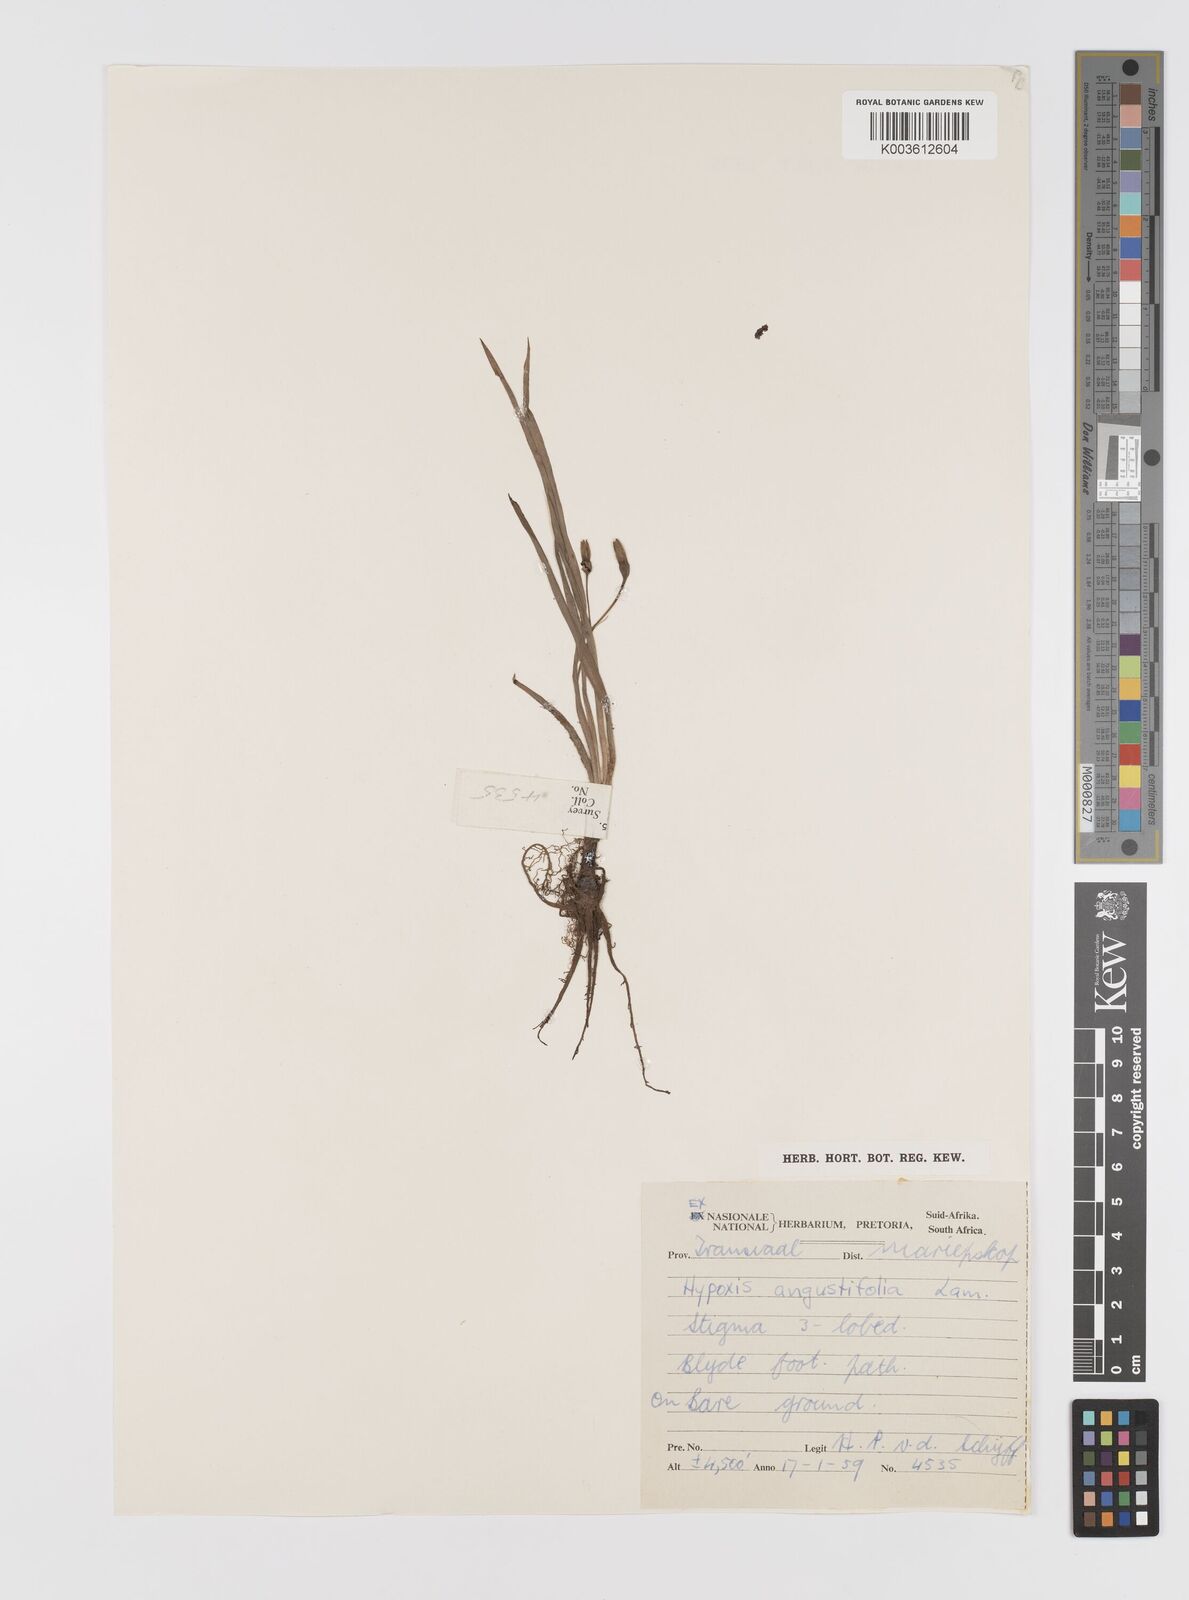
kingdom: Plantae
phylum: Tracheophyta
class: Liliopsida
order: Asparagales
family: Hypoxidaceae
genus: Hypoxis
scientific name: Hypoxis angustifolia
